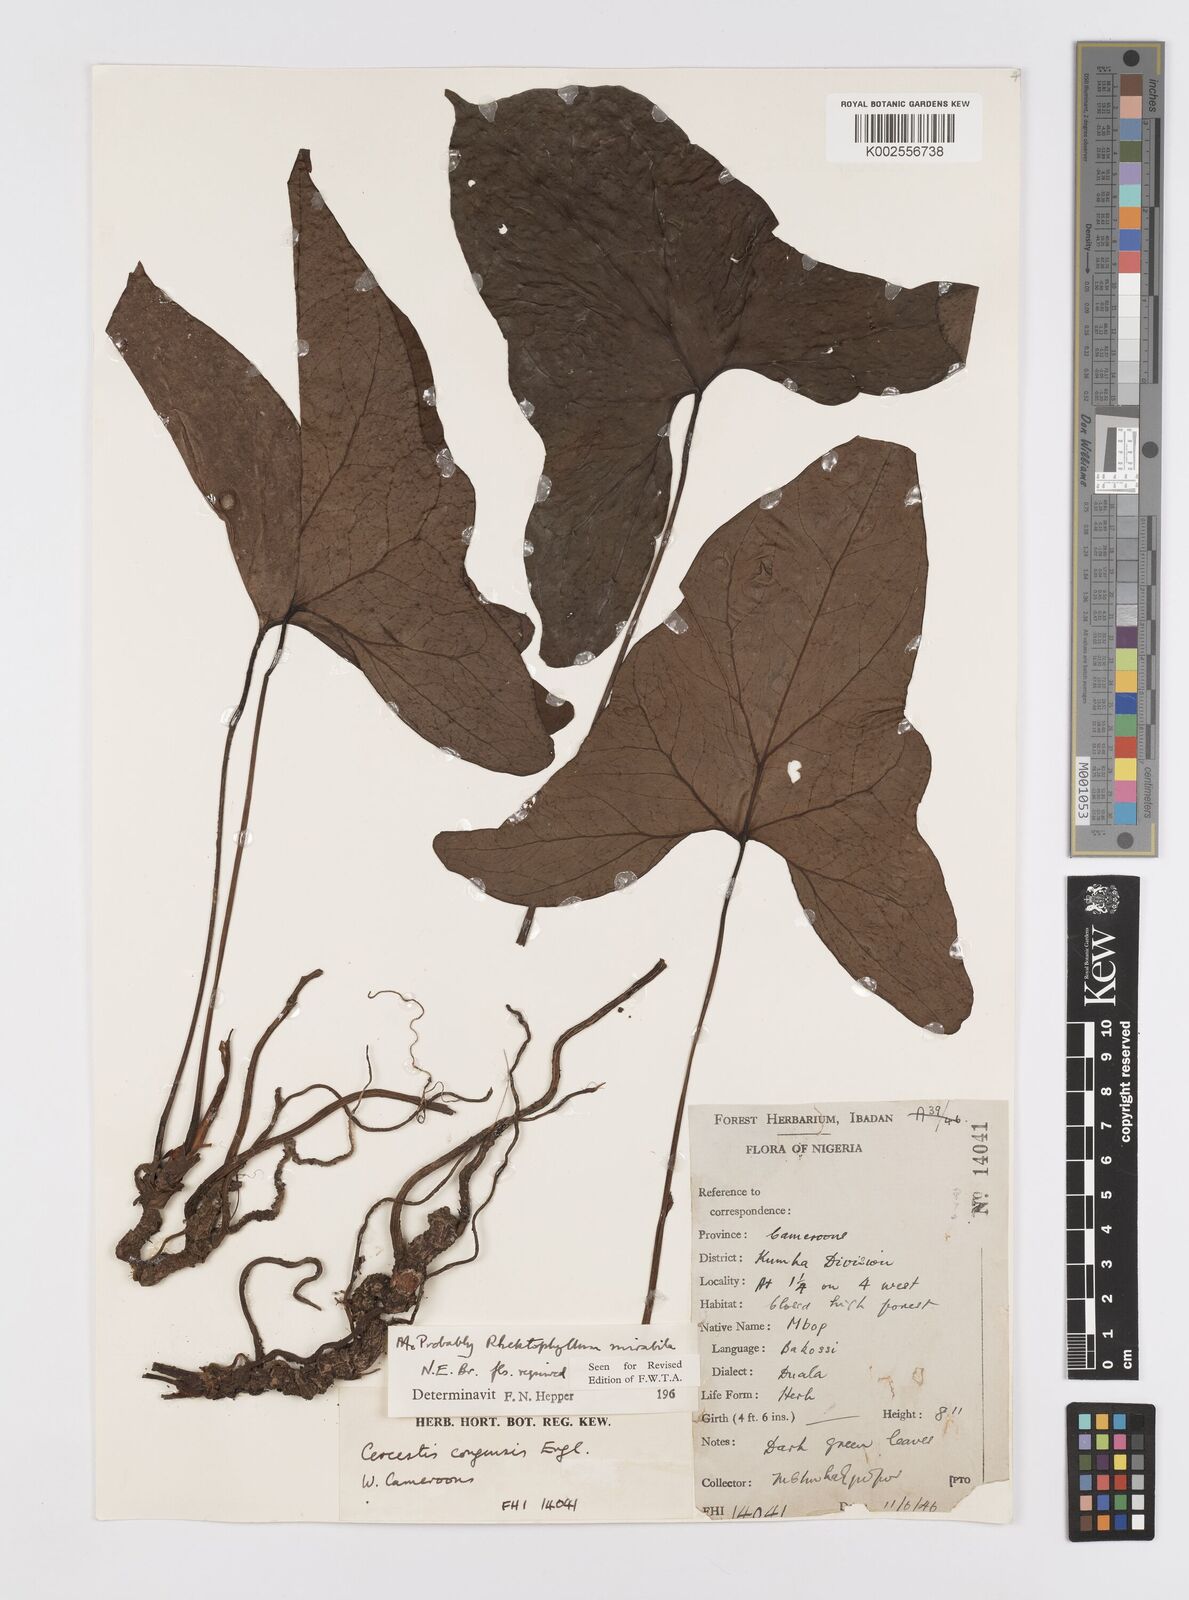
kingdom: Plantae
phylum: Tracheophyta
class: Liliopsida
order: Alismatales
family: Araceae
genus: Cercestis
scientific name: Cercestis mirabilis
